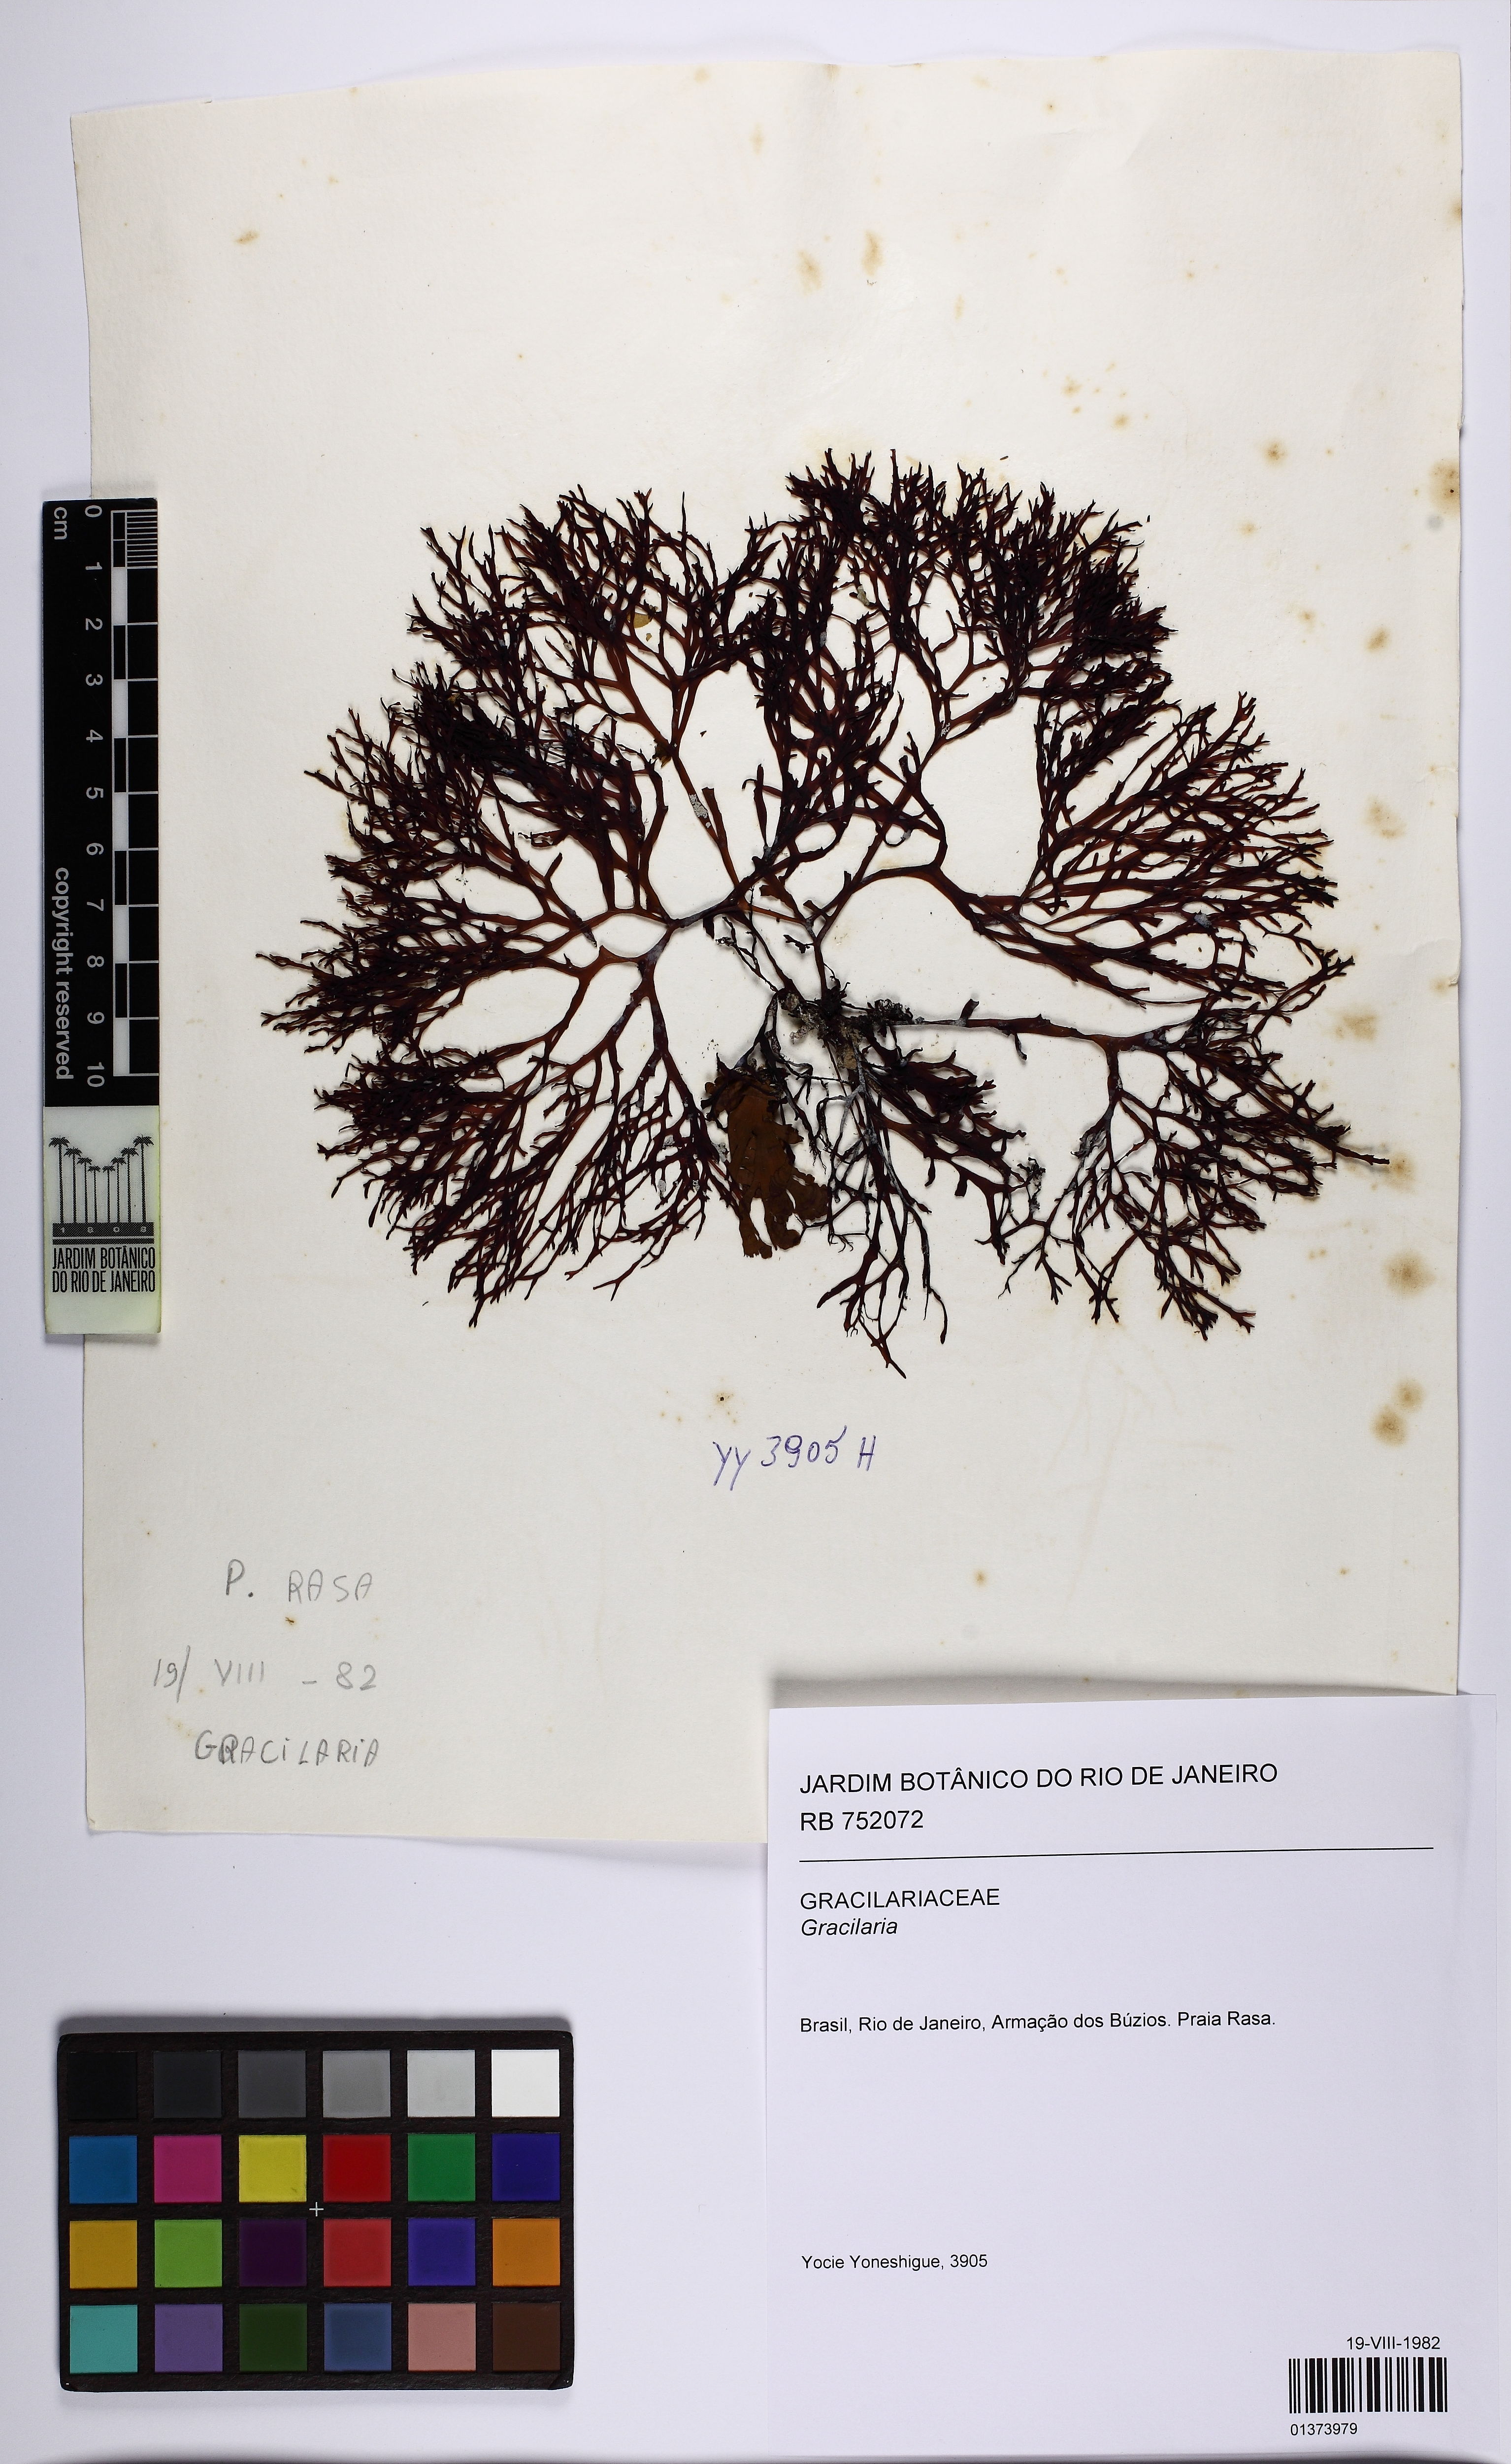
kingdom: Plantae
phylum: Rhodophyta
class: Florideophyceae
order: Gracilariales
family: Gracilariaceae
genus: Gracilaria
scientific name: Gracilaria
